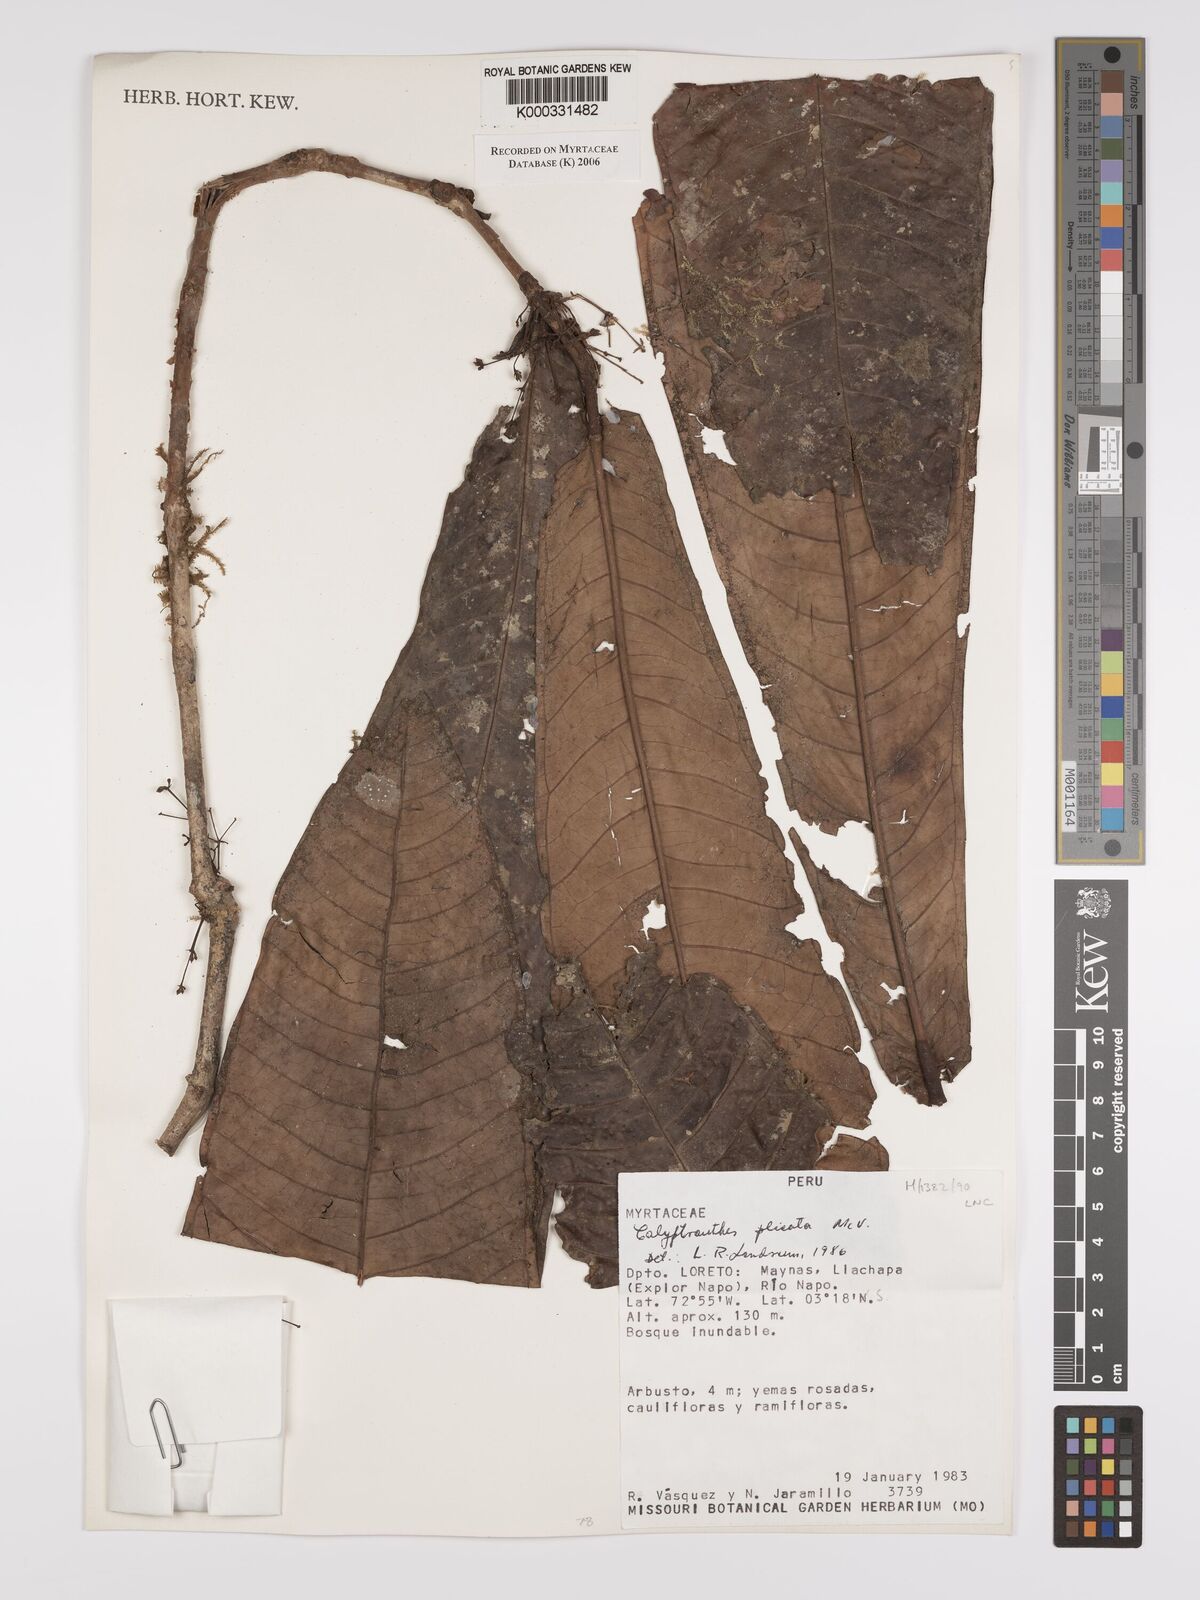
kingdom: Plantae
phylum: Tracheophyta
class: Magnoliopsida
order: Myrtales
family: Myrtaceae
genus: Myrcia
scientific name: Myrcia plicata
